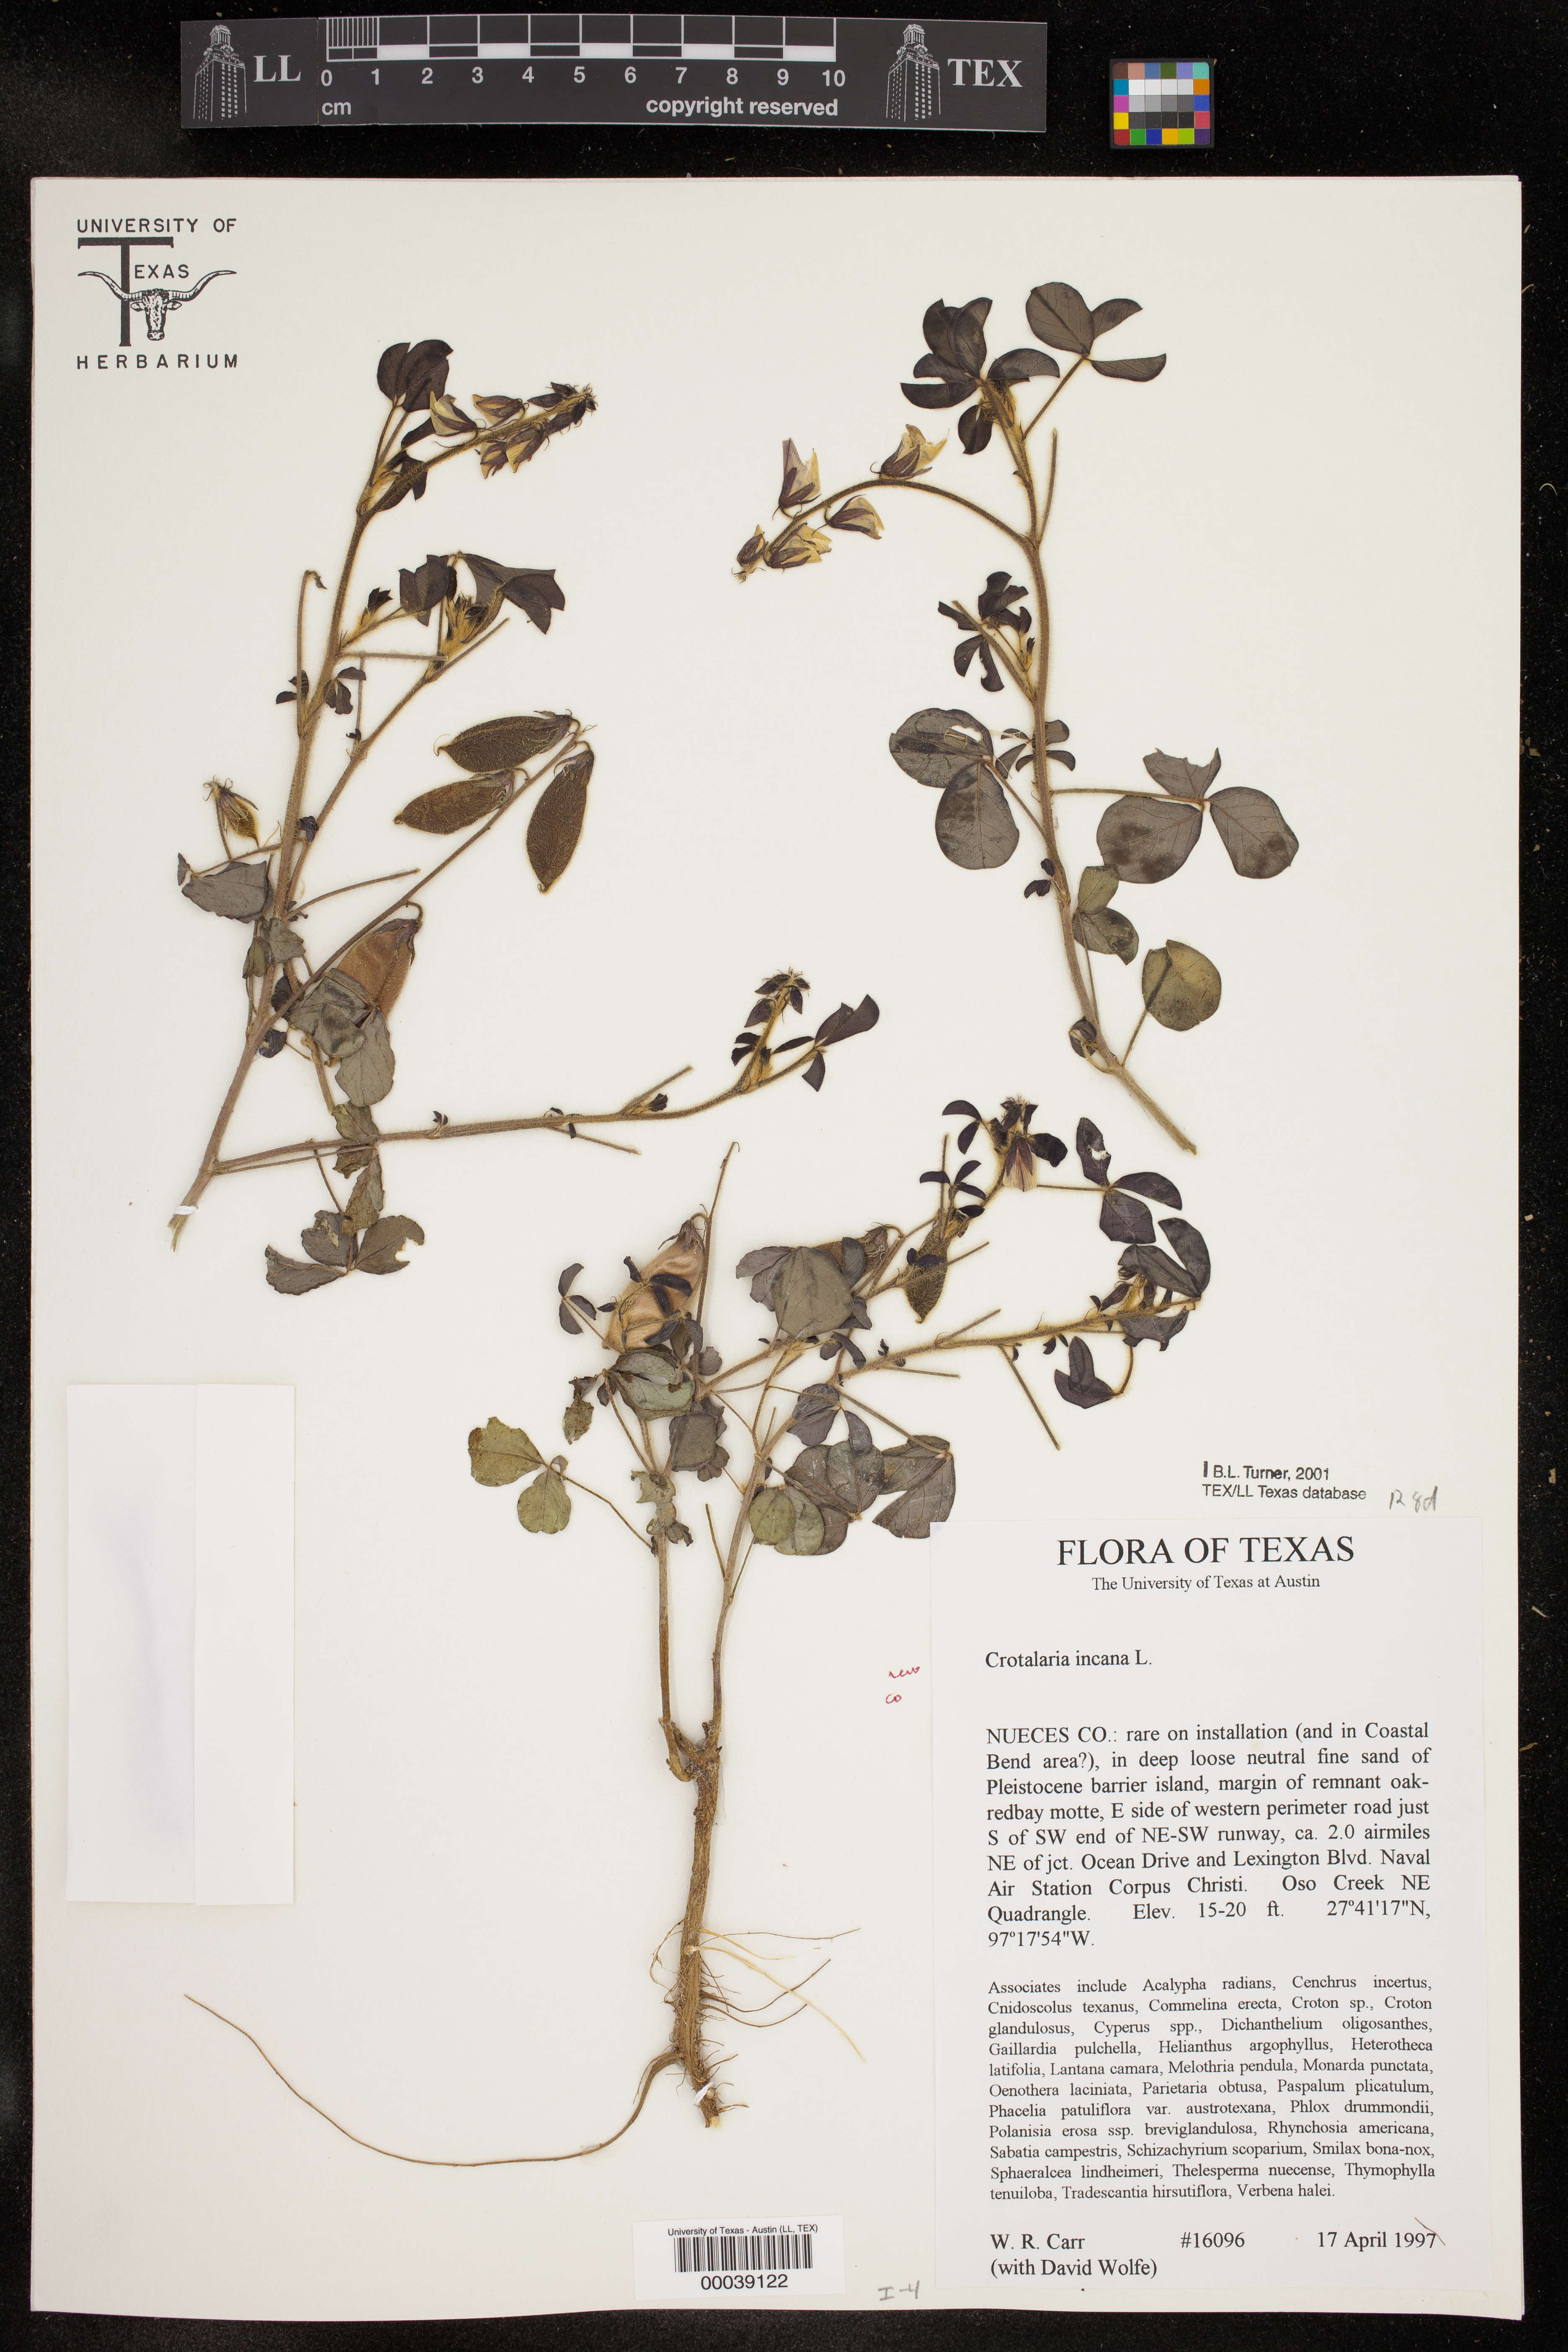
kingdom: Plantae
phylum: Tracheophyta
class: Magnoliopsida
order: Fabales
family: Fabaceae
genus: Crotalaria
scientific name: Crotalaria incana
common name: Shakeshake
